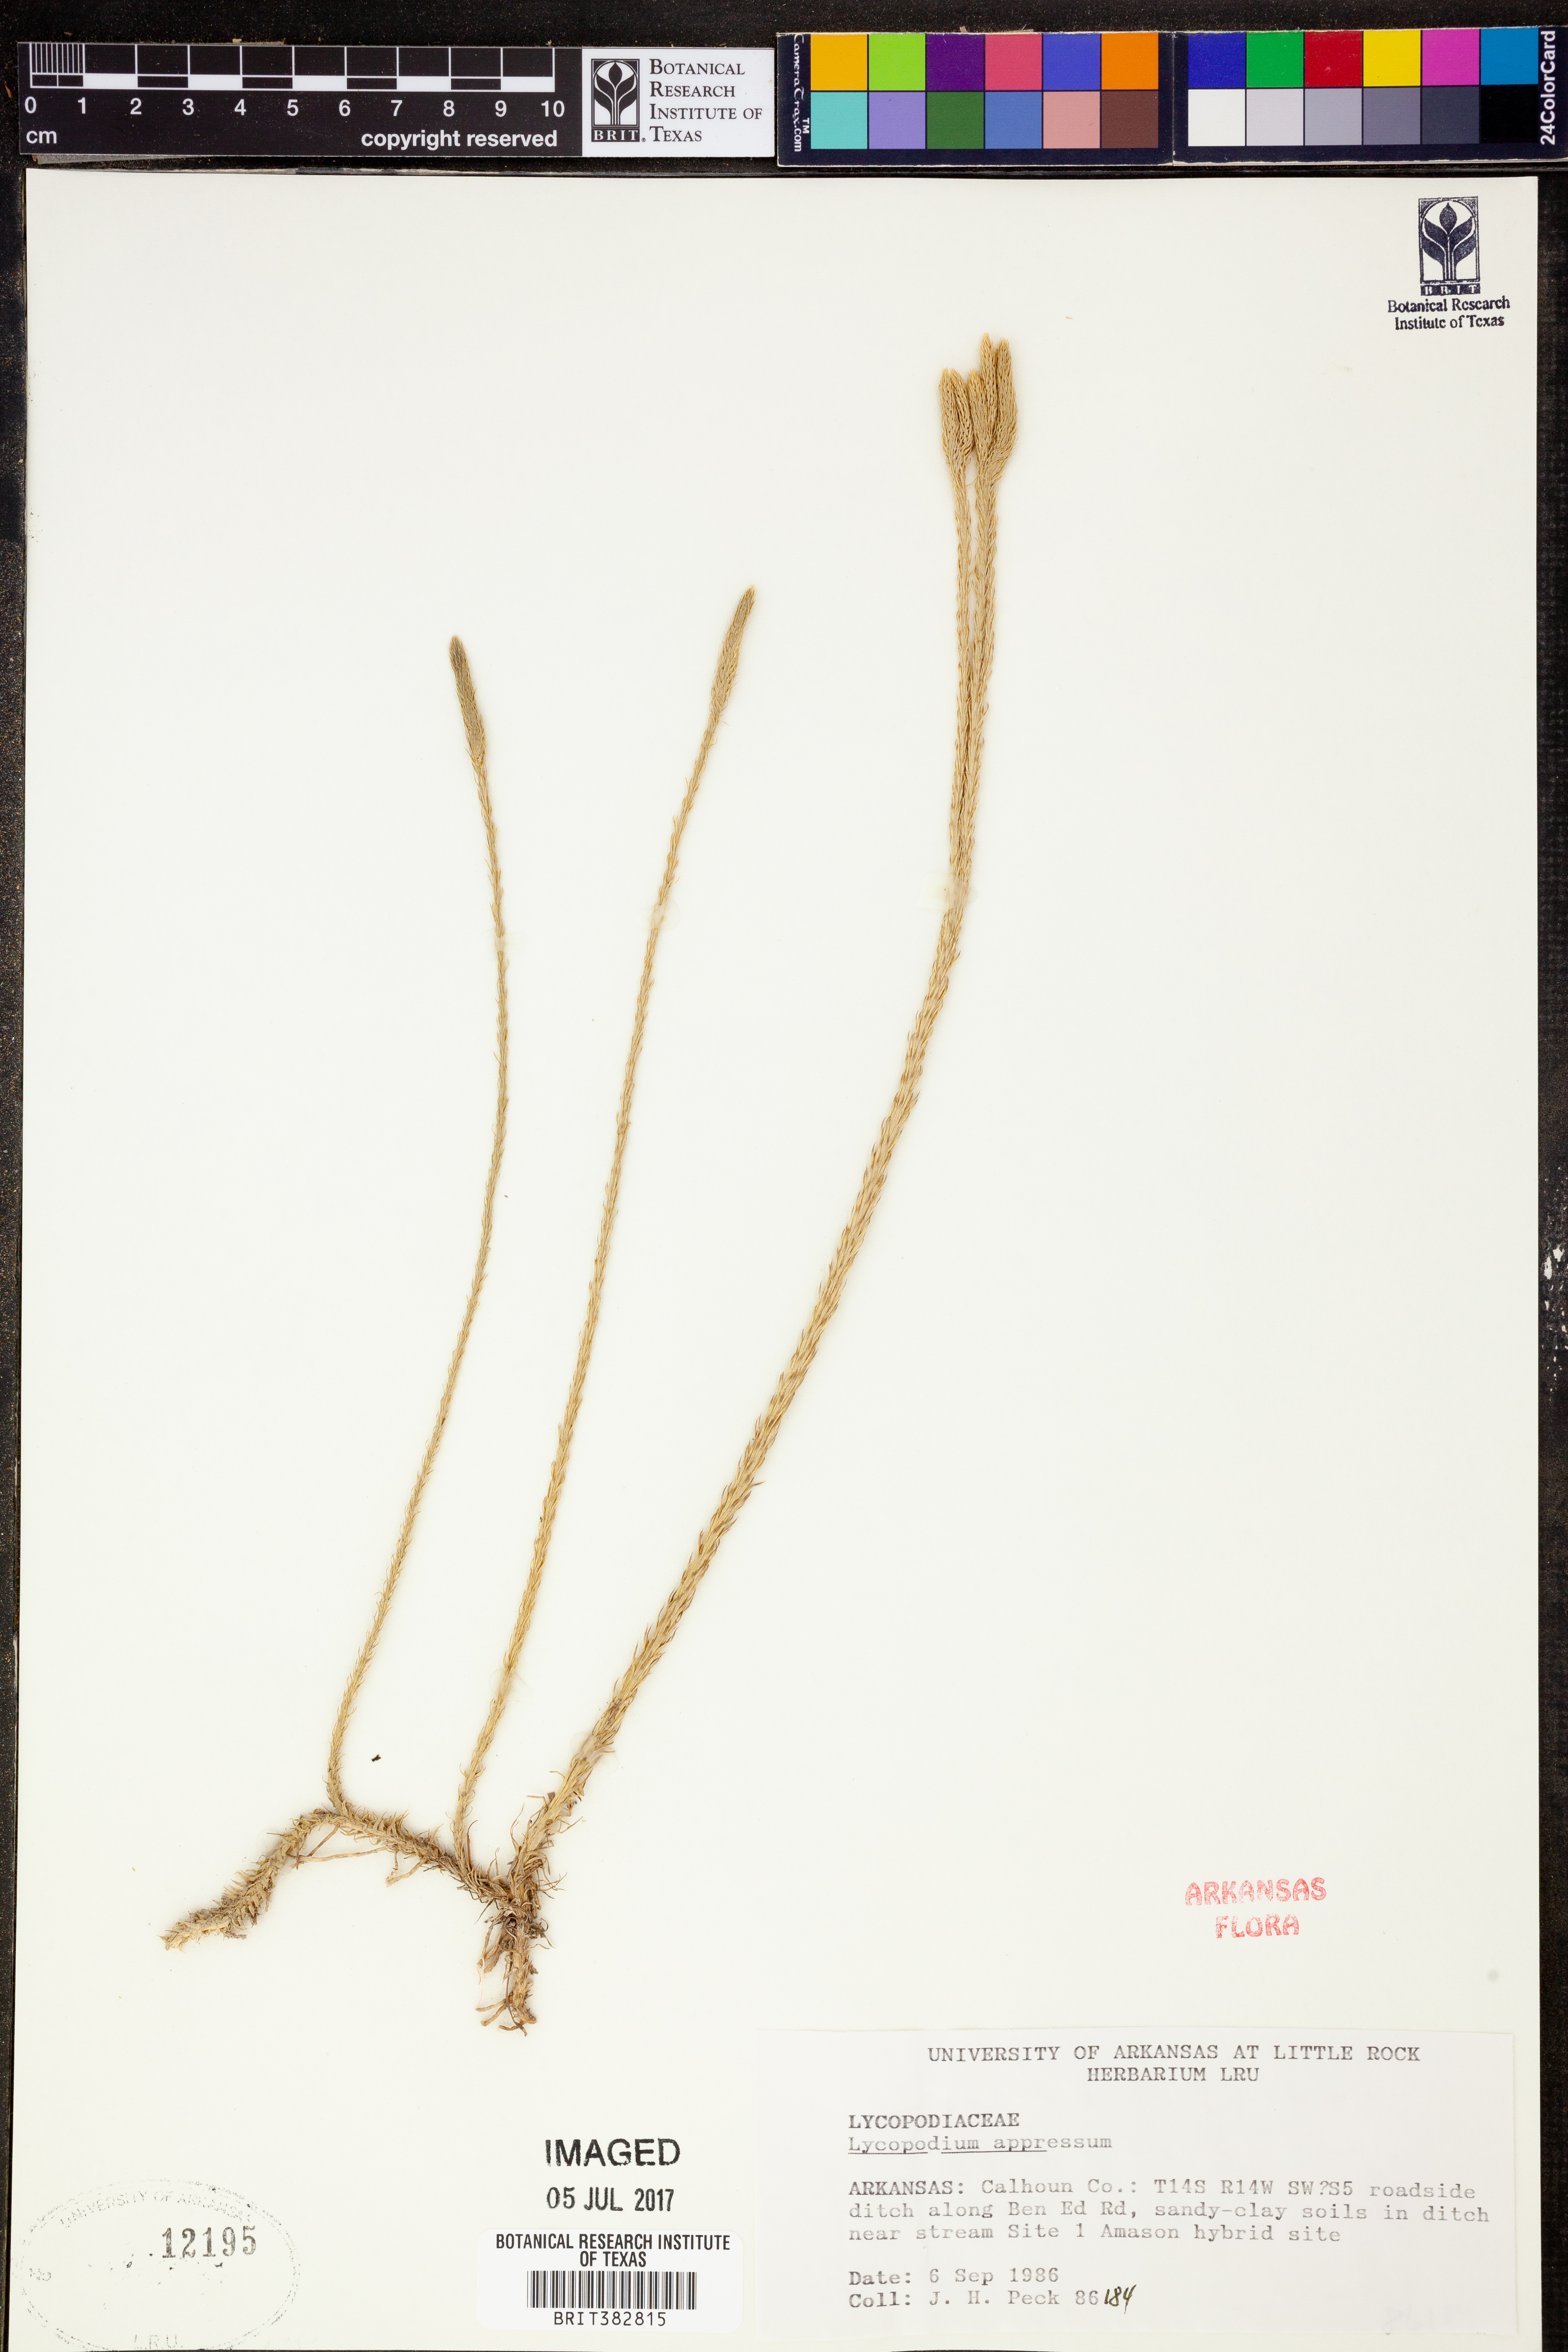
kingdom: Plantae
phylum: Tracheophyta
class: Lycopodiopsida
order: Lycopodiales
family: Lycopodiaceae
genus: Lycopodiella
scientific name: Lycopodiella appressa
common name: Appressed bog clubmoss
